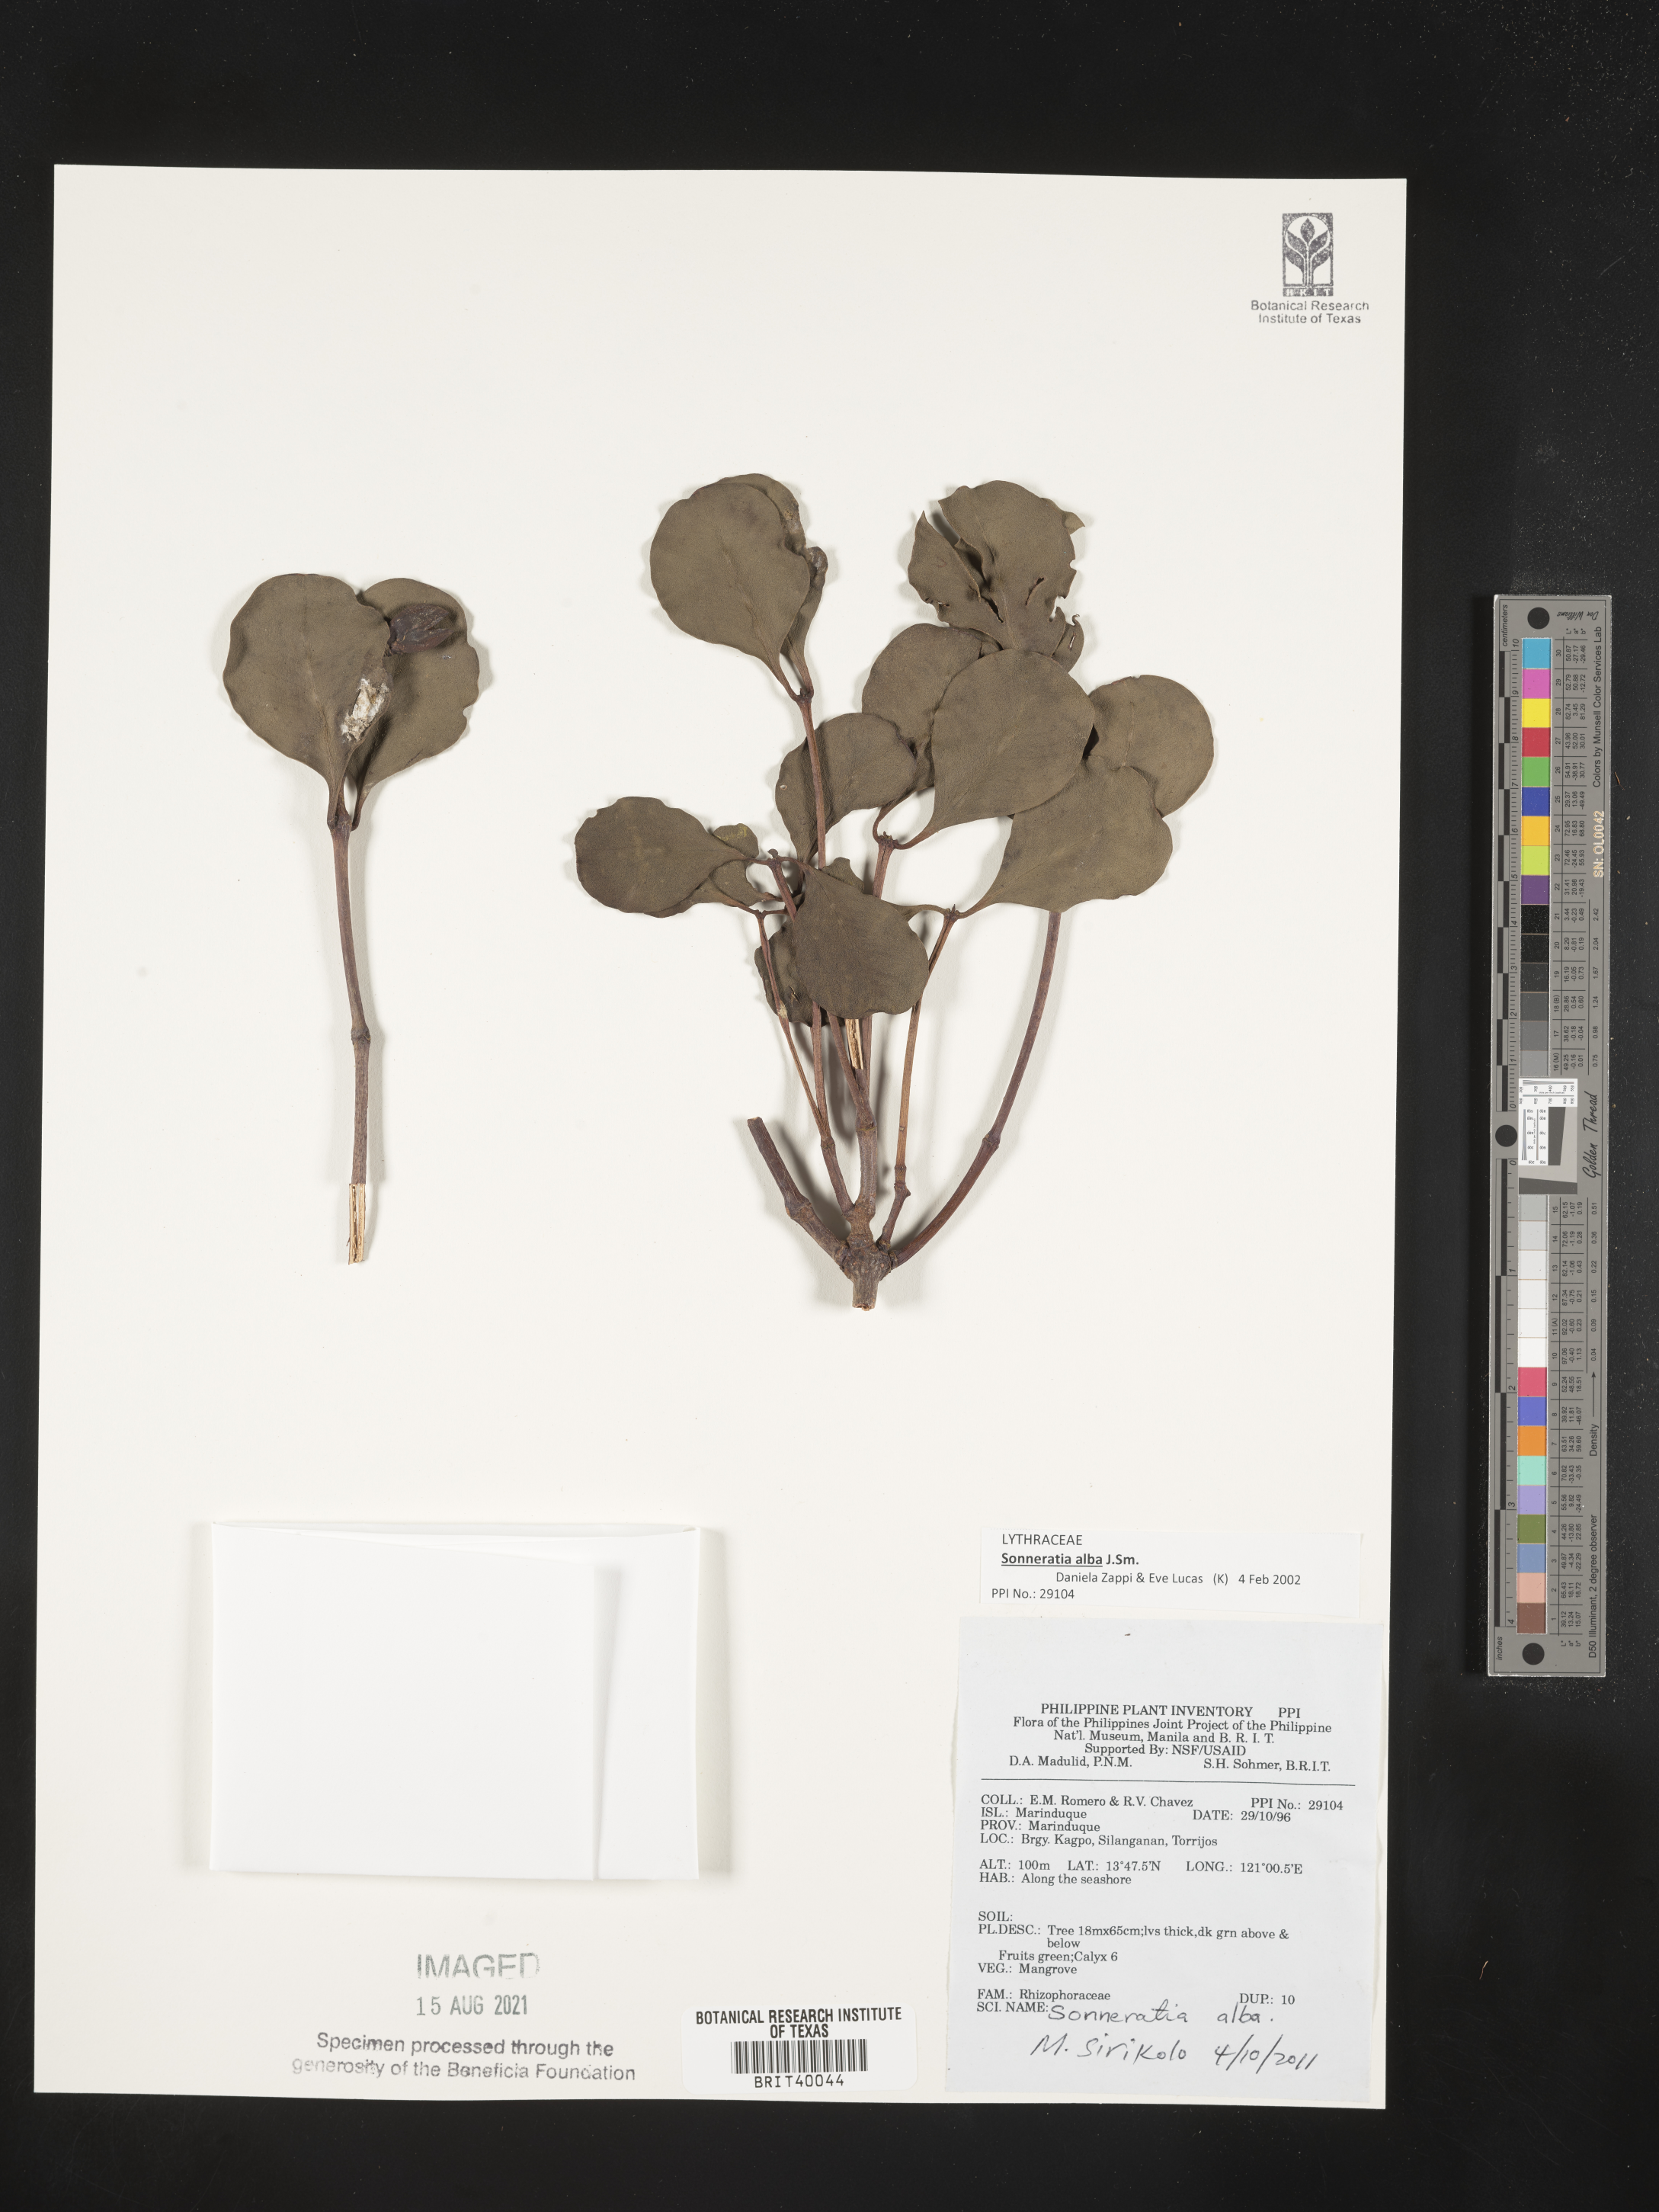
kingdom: Plantae
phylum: Tracheophyta
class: Magnoliopsida
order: Myrtales
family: Lythraceae
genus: Sonneratia
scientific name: Sonneratia alba
